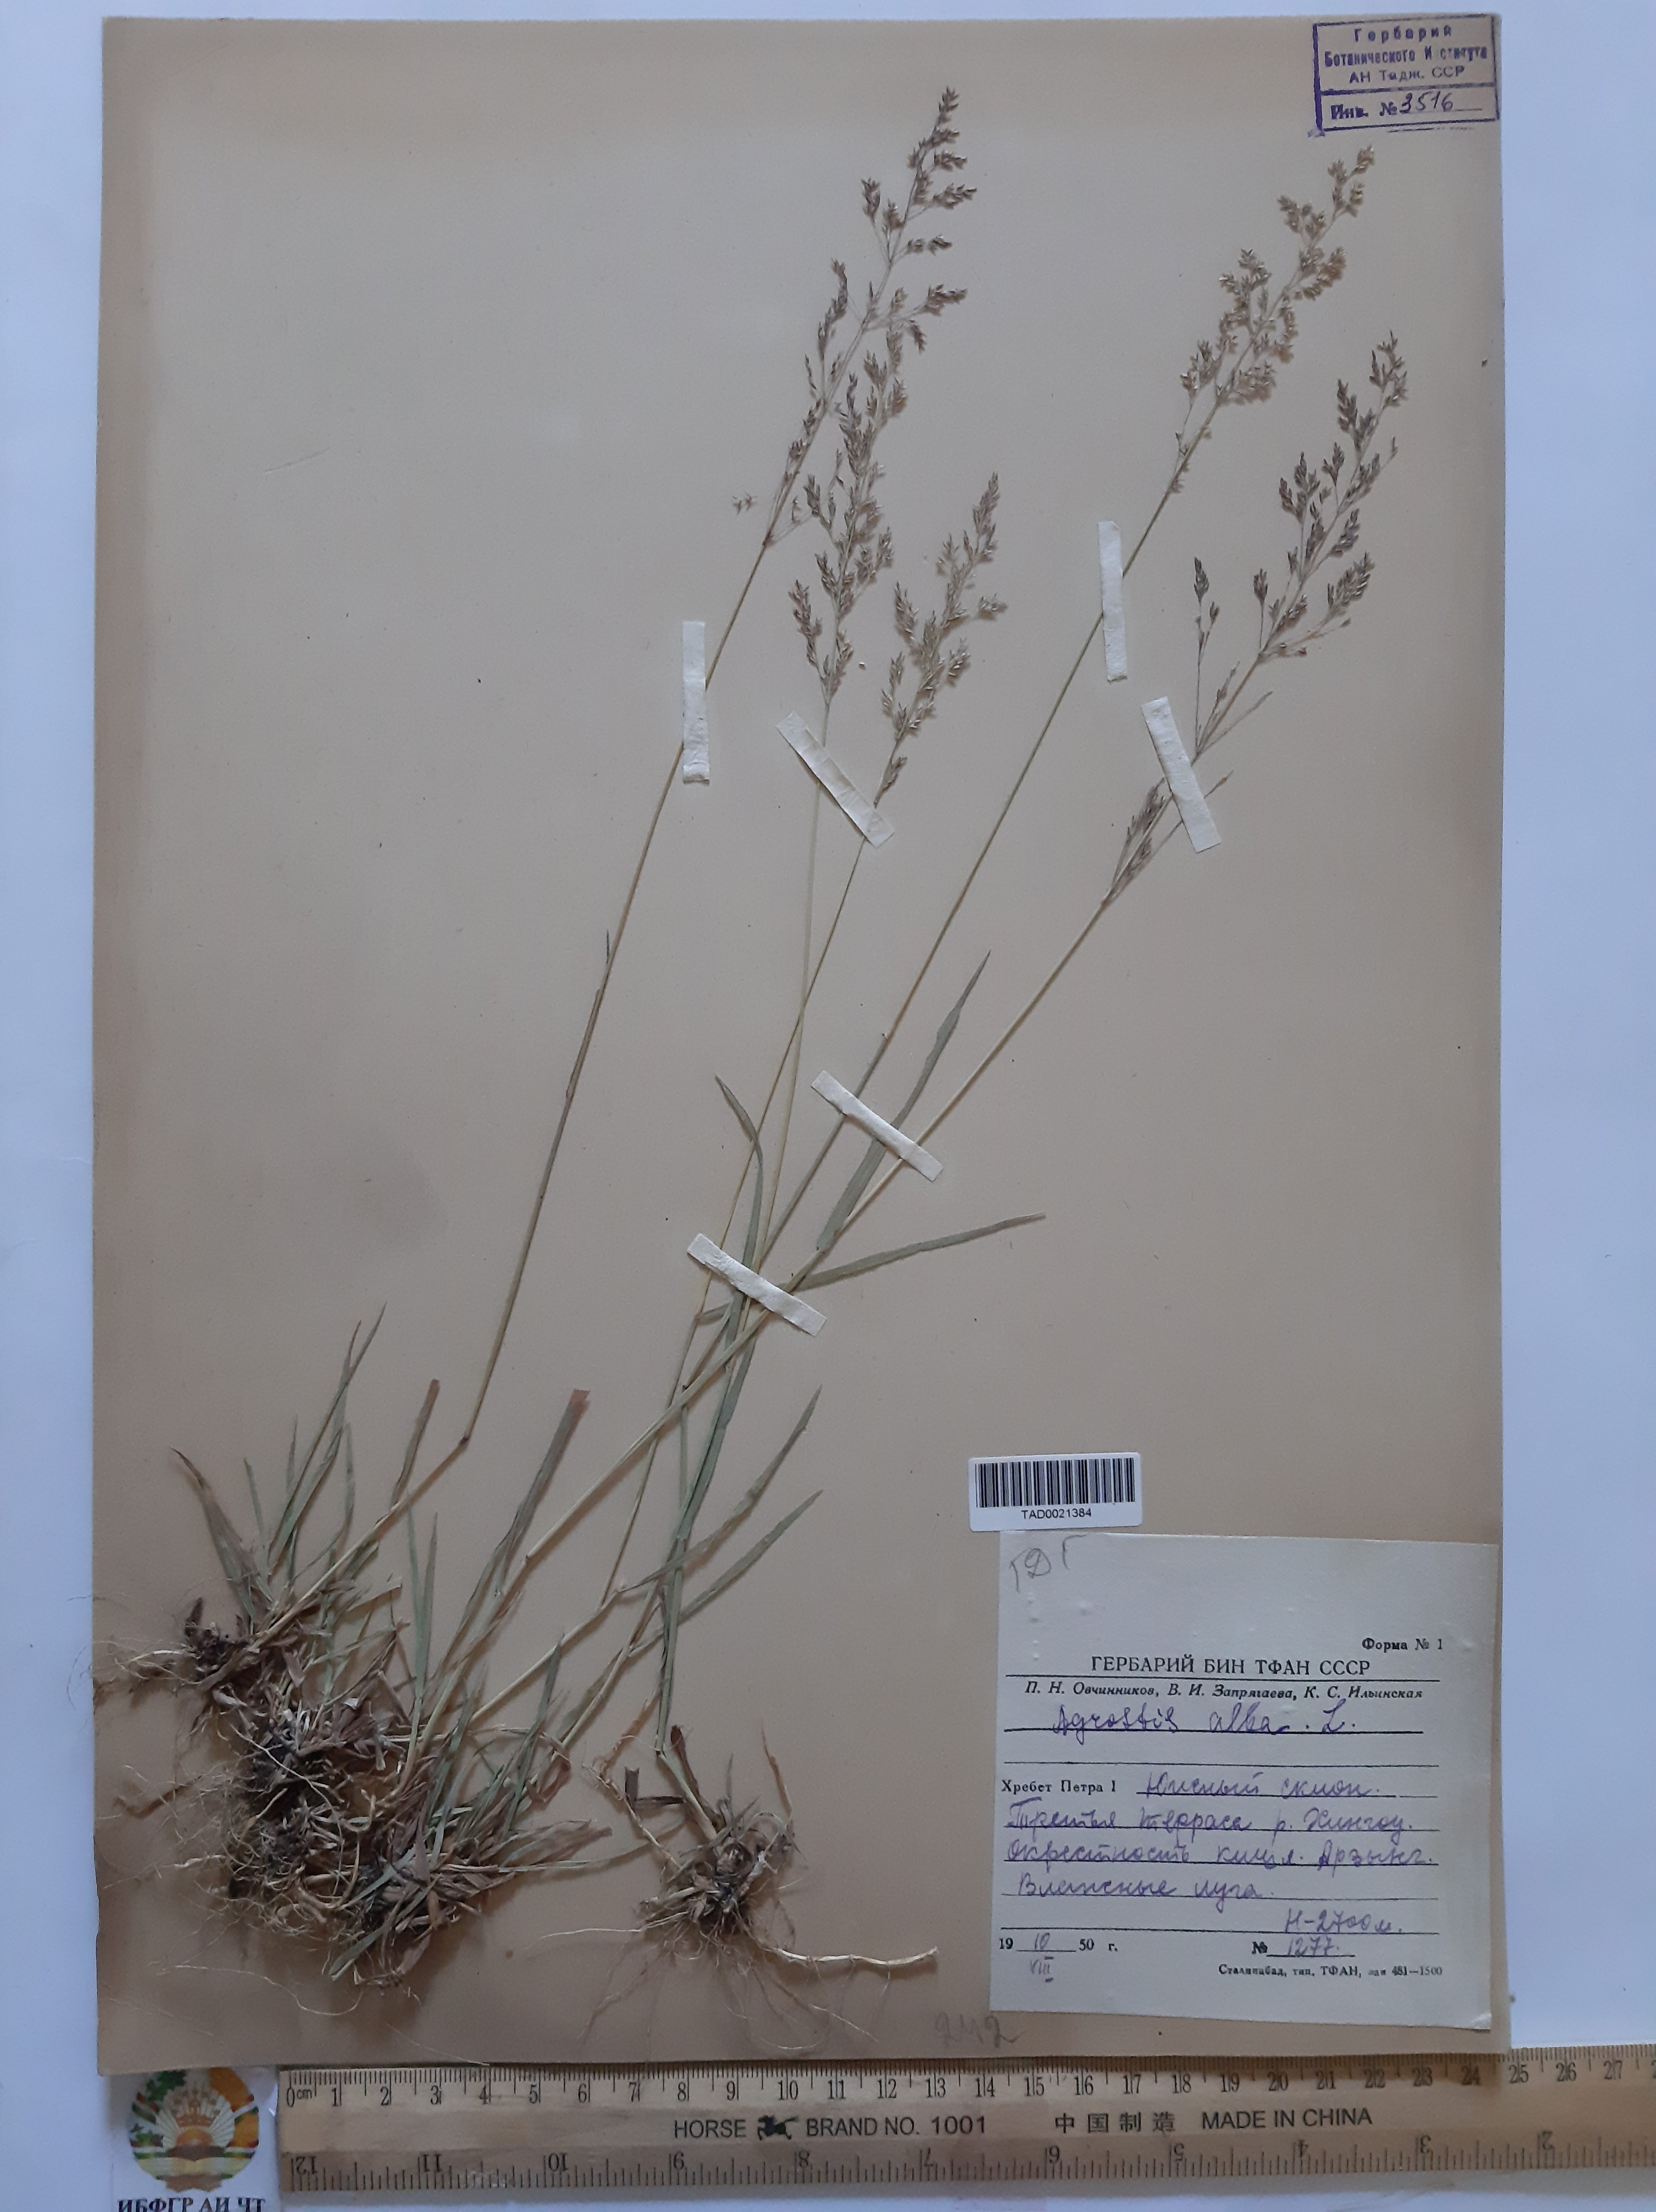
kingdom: Plantae
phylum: Tracheophyta
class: Liliopsida
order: Poales
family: Poaceae
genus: Poa
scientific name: Poa nemoralis
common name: Wood bluegrass
